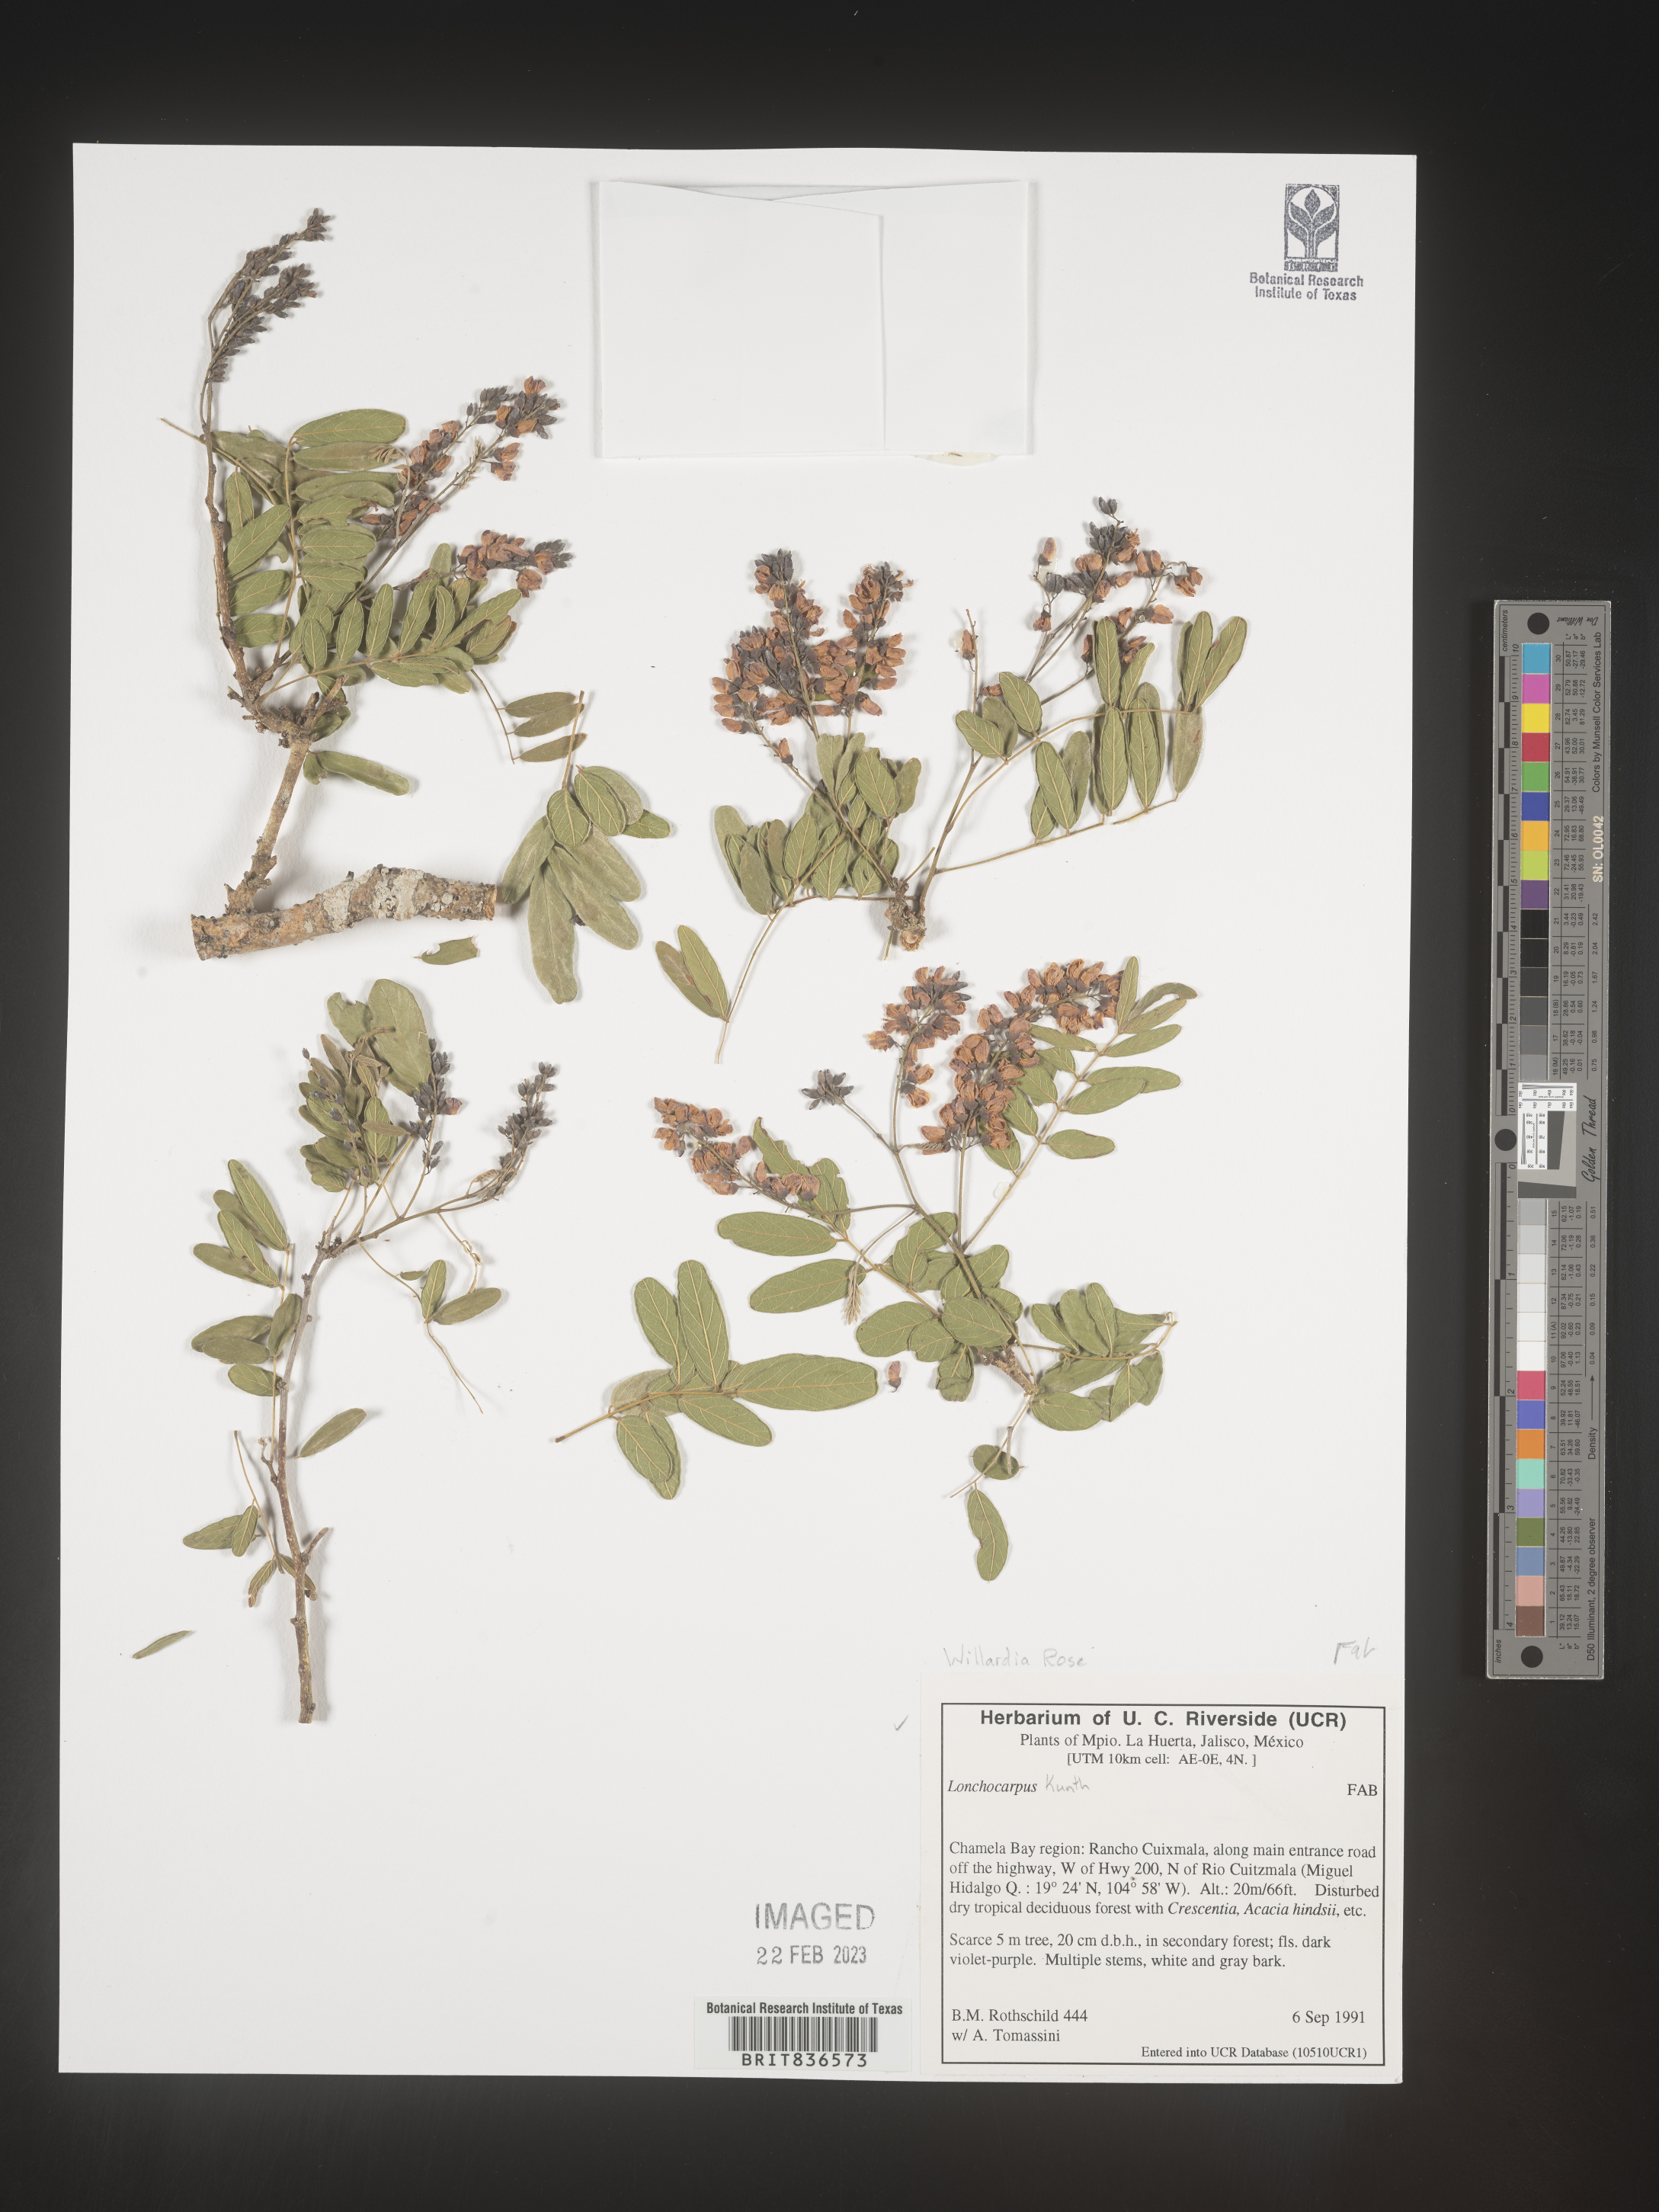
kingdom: Animalia
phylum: Porifera
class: Demospongiae
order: Clionaida
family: Acanthochaetetidae
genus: Willardia
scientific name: Willardia
